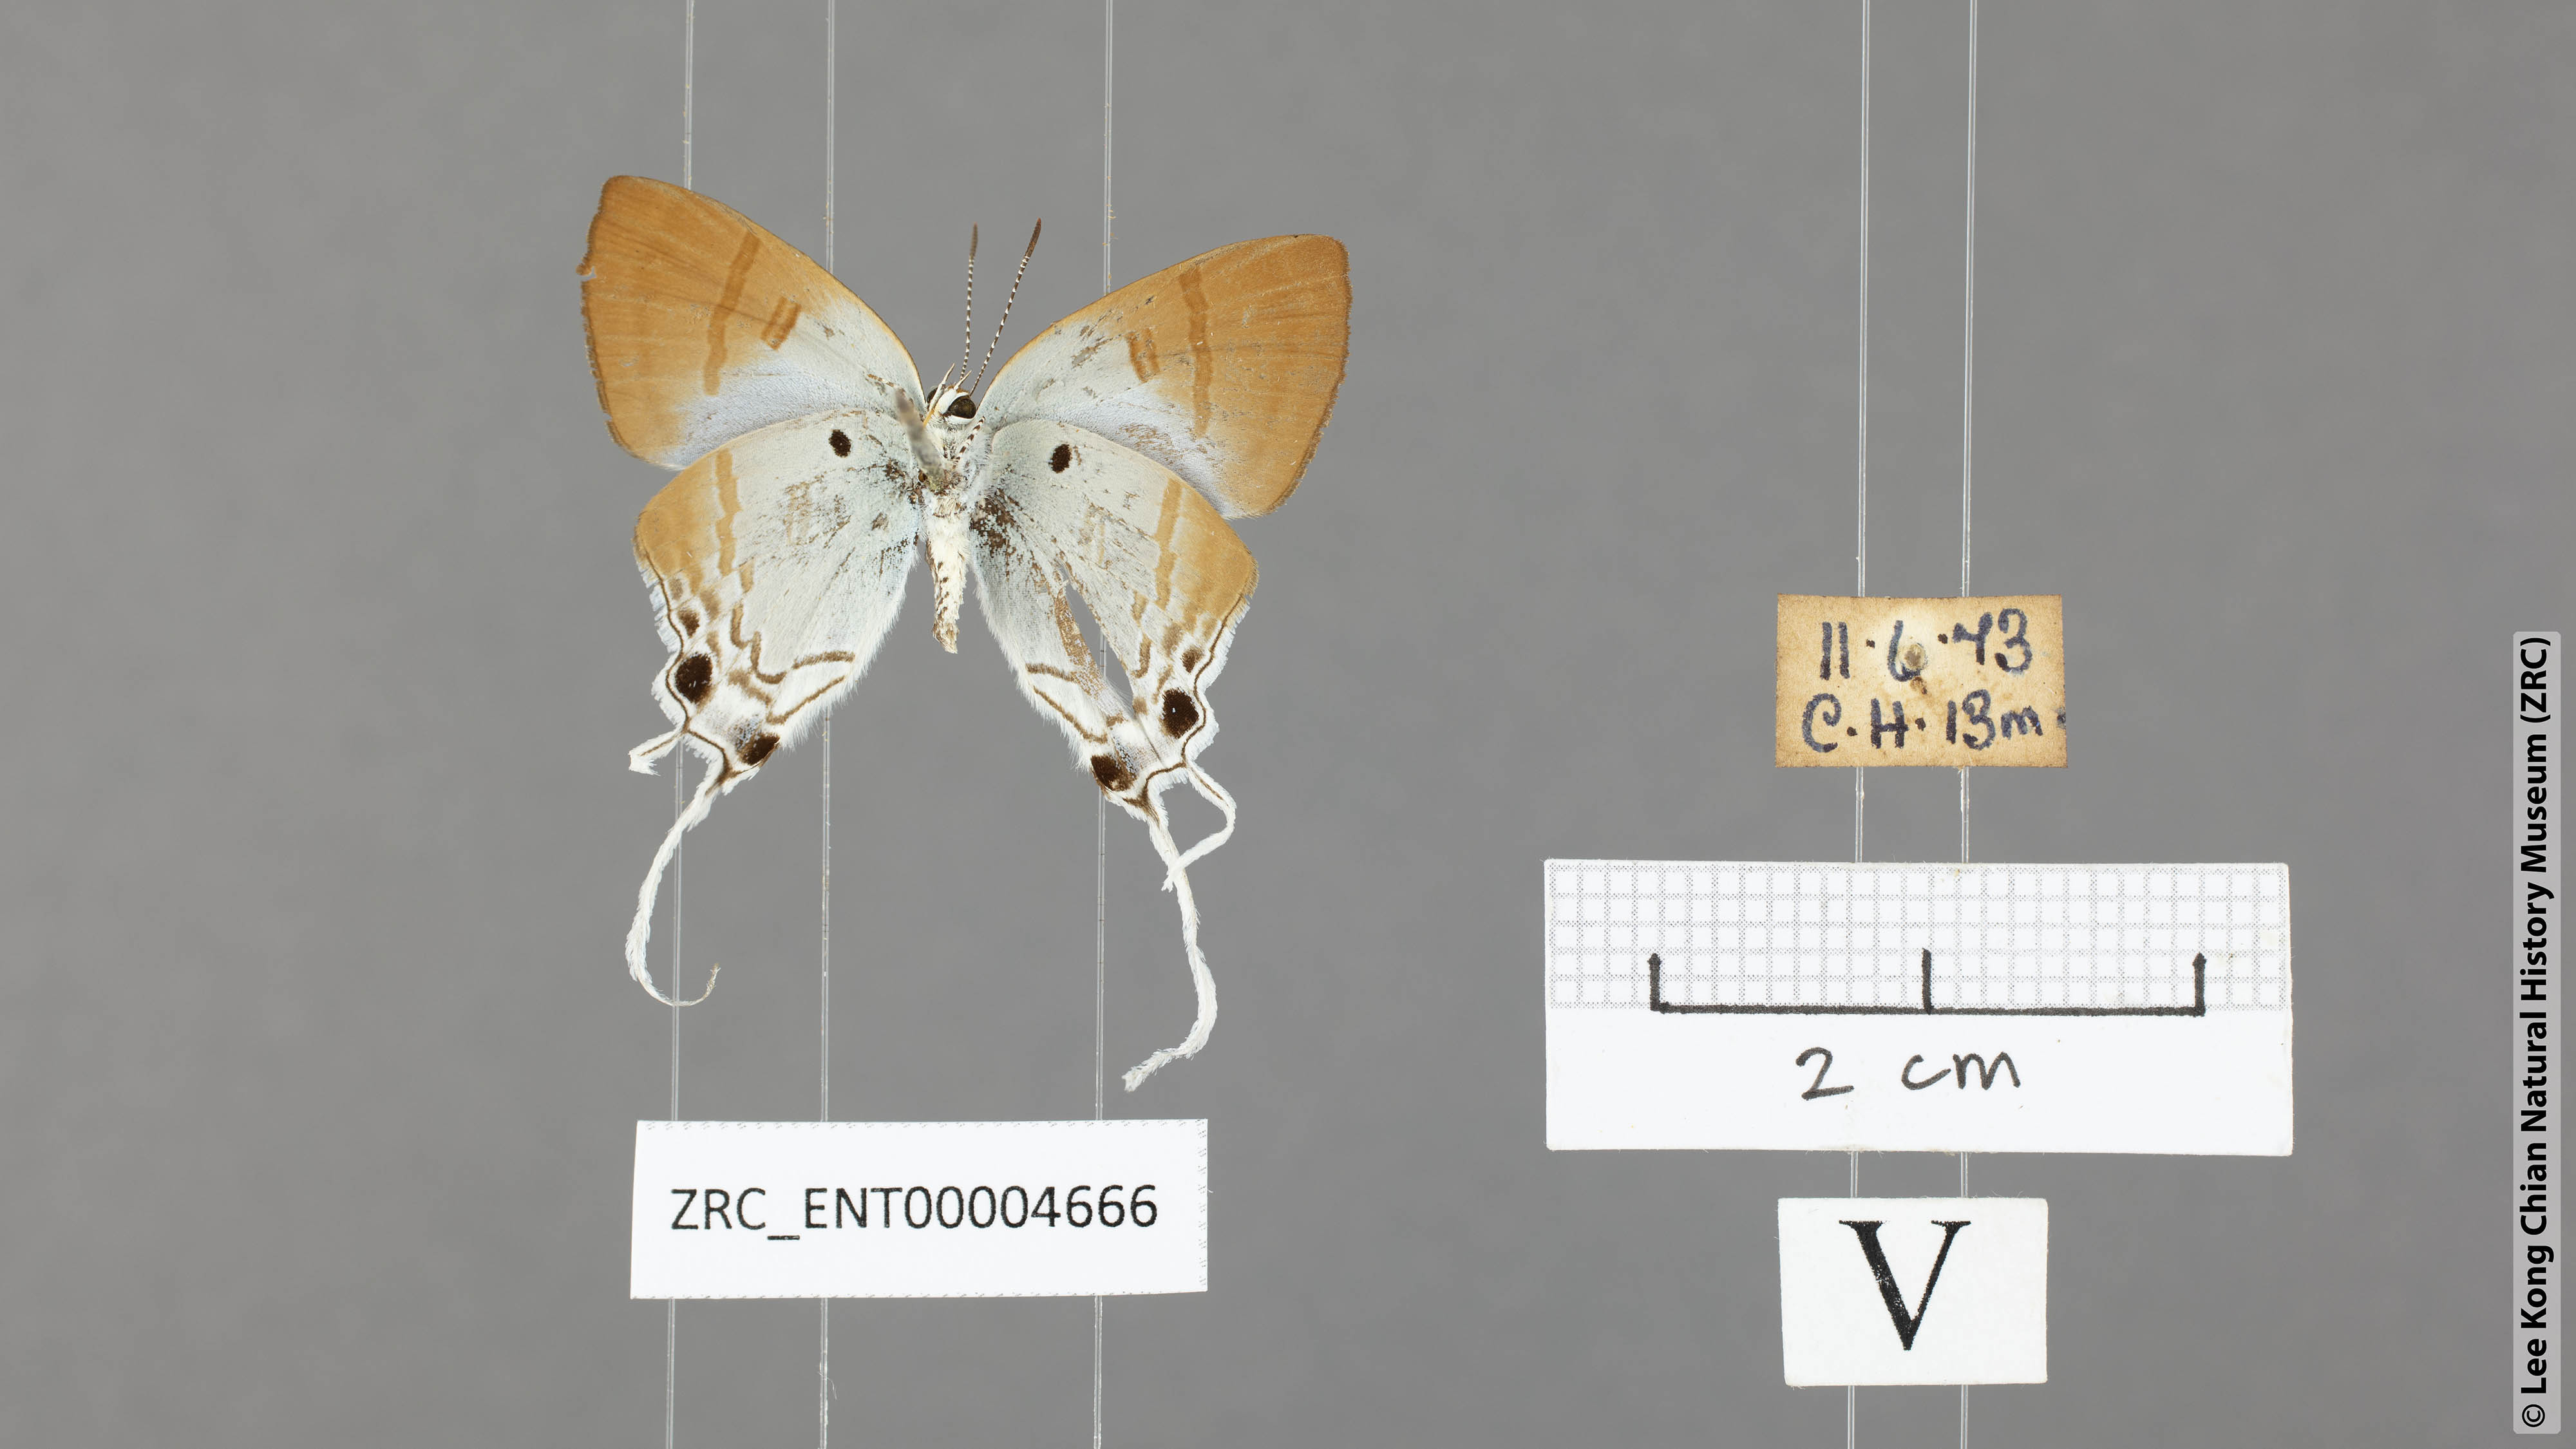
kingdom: Animalia
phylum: Arthropoda
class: Insecta
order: Lepidoptera
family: Lycaenidae
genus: Zeltus
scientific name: Zeltus amasa
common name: Fluffy tit
